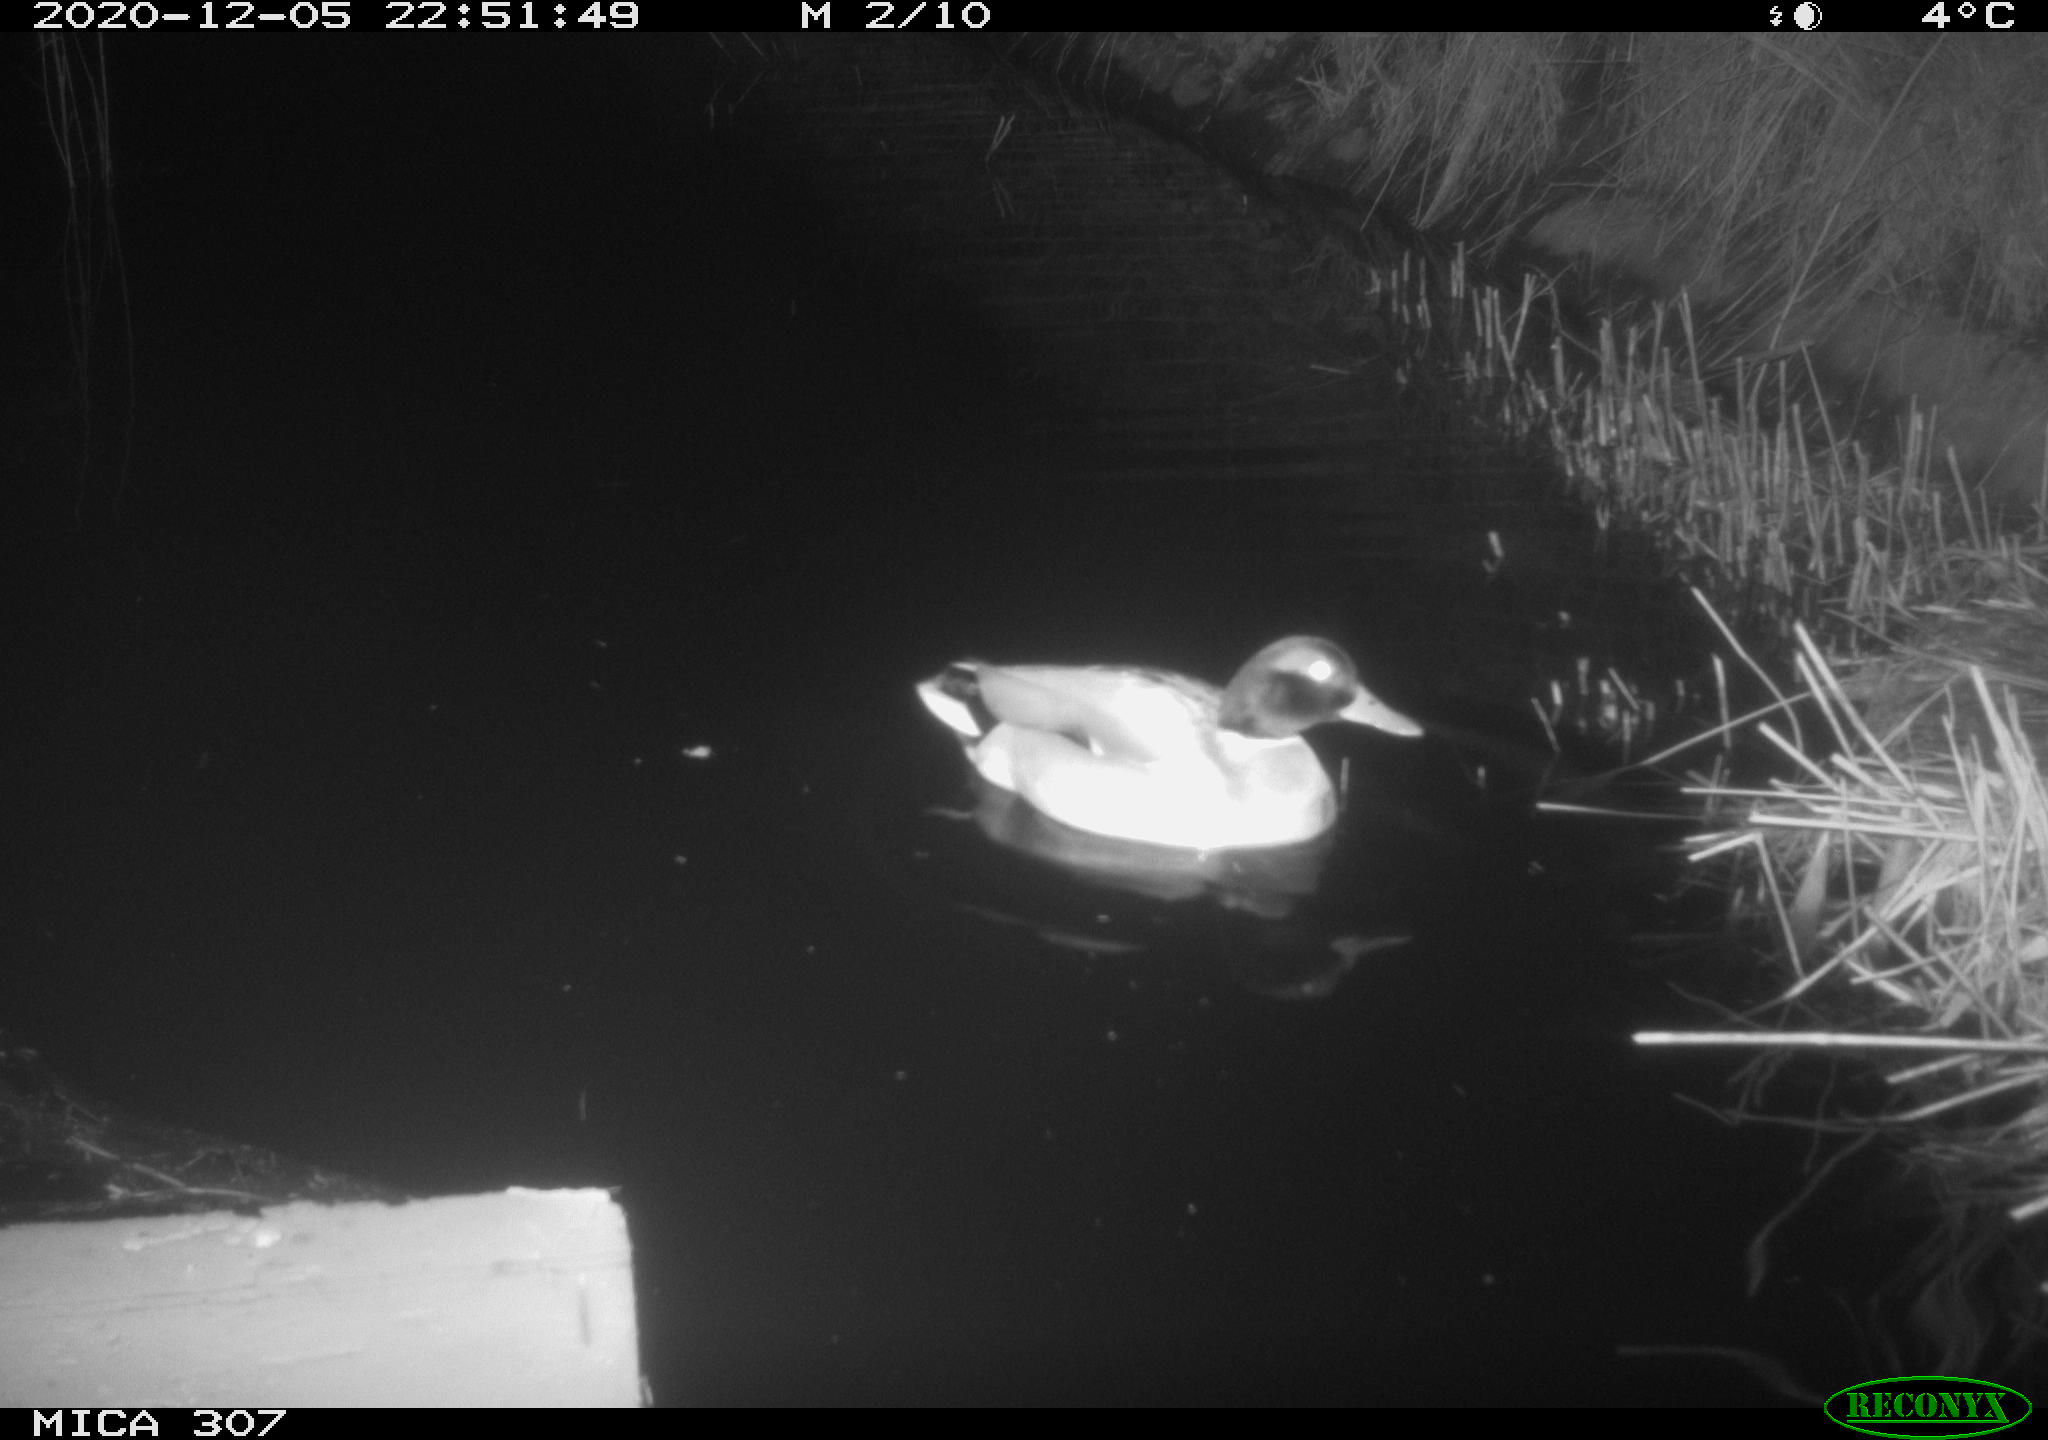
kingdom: Animalia
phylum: Chordata
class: Aves
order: Anseriformes
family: Anatidae
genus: Anas
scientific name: Anas platyrhynchos
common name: Mallard
